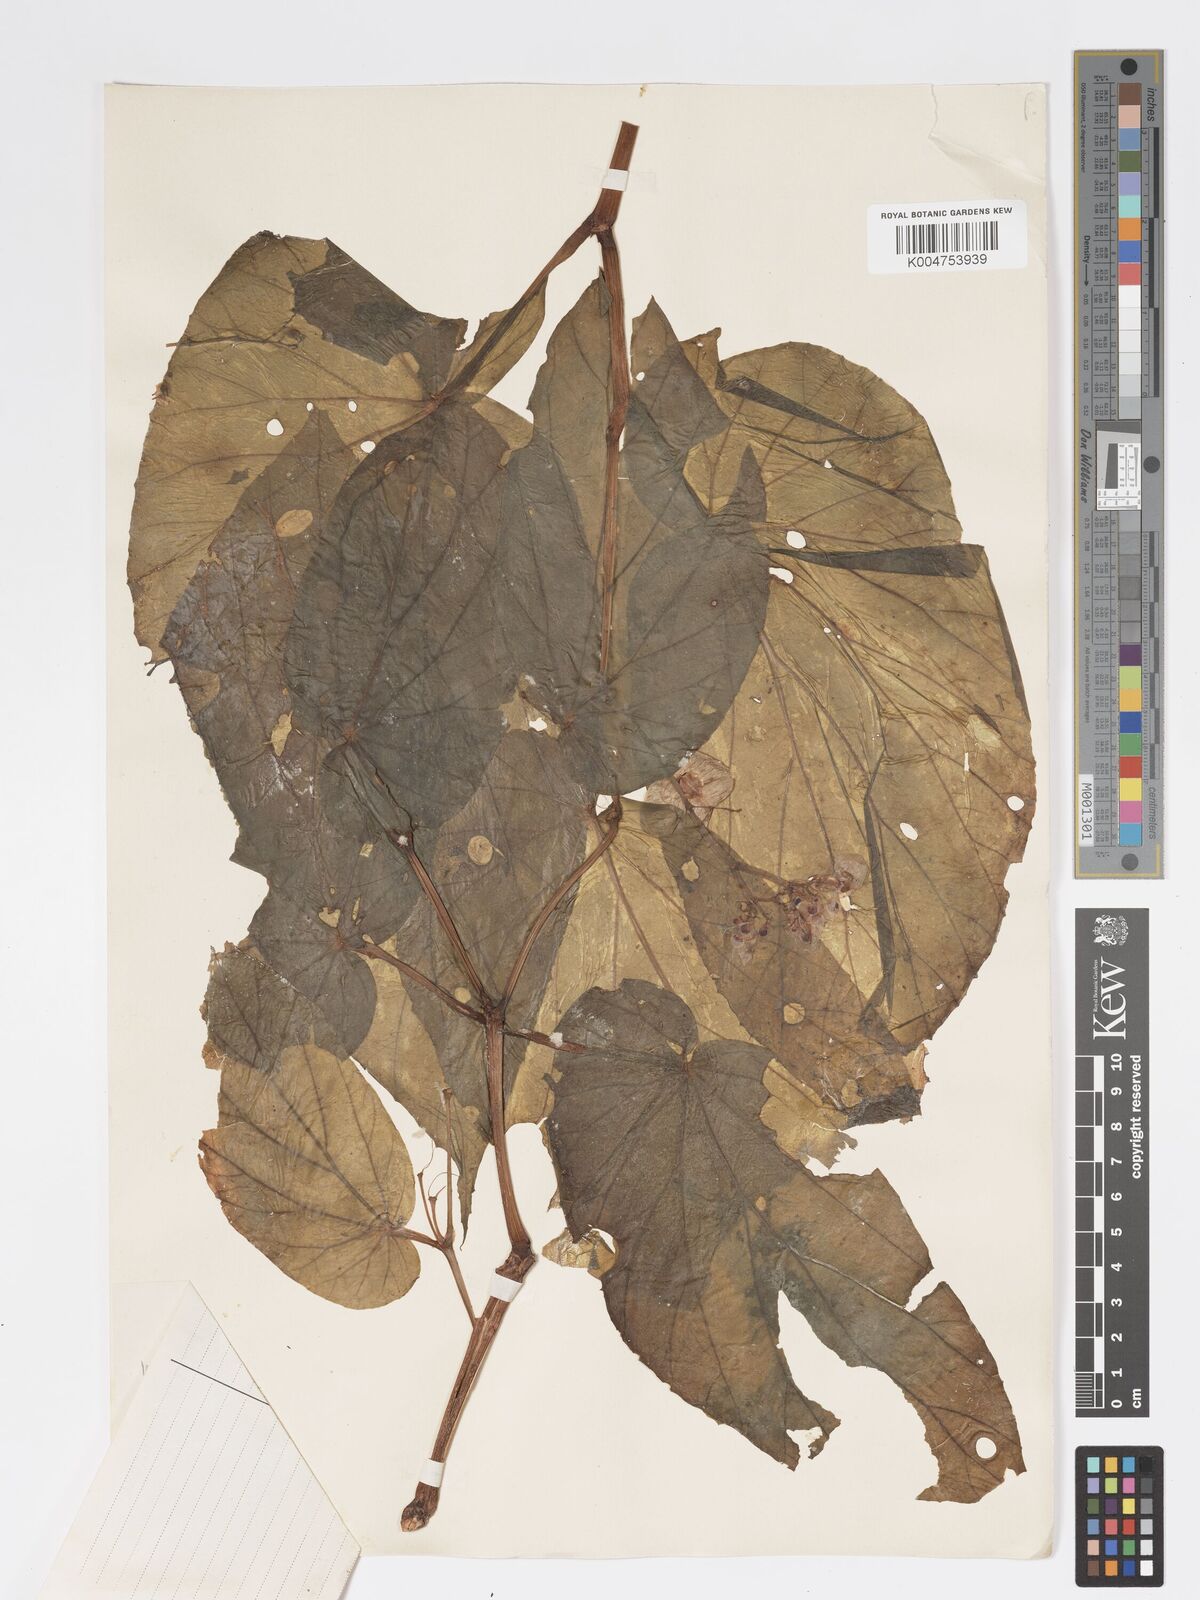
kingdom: Plantae
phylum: Tracheophyta
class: Magnoliopsida
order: Cucurbitales
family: Begoniaceae
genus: Begonia
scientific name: Begonia isoptera
